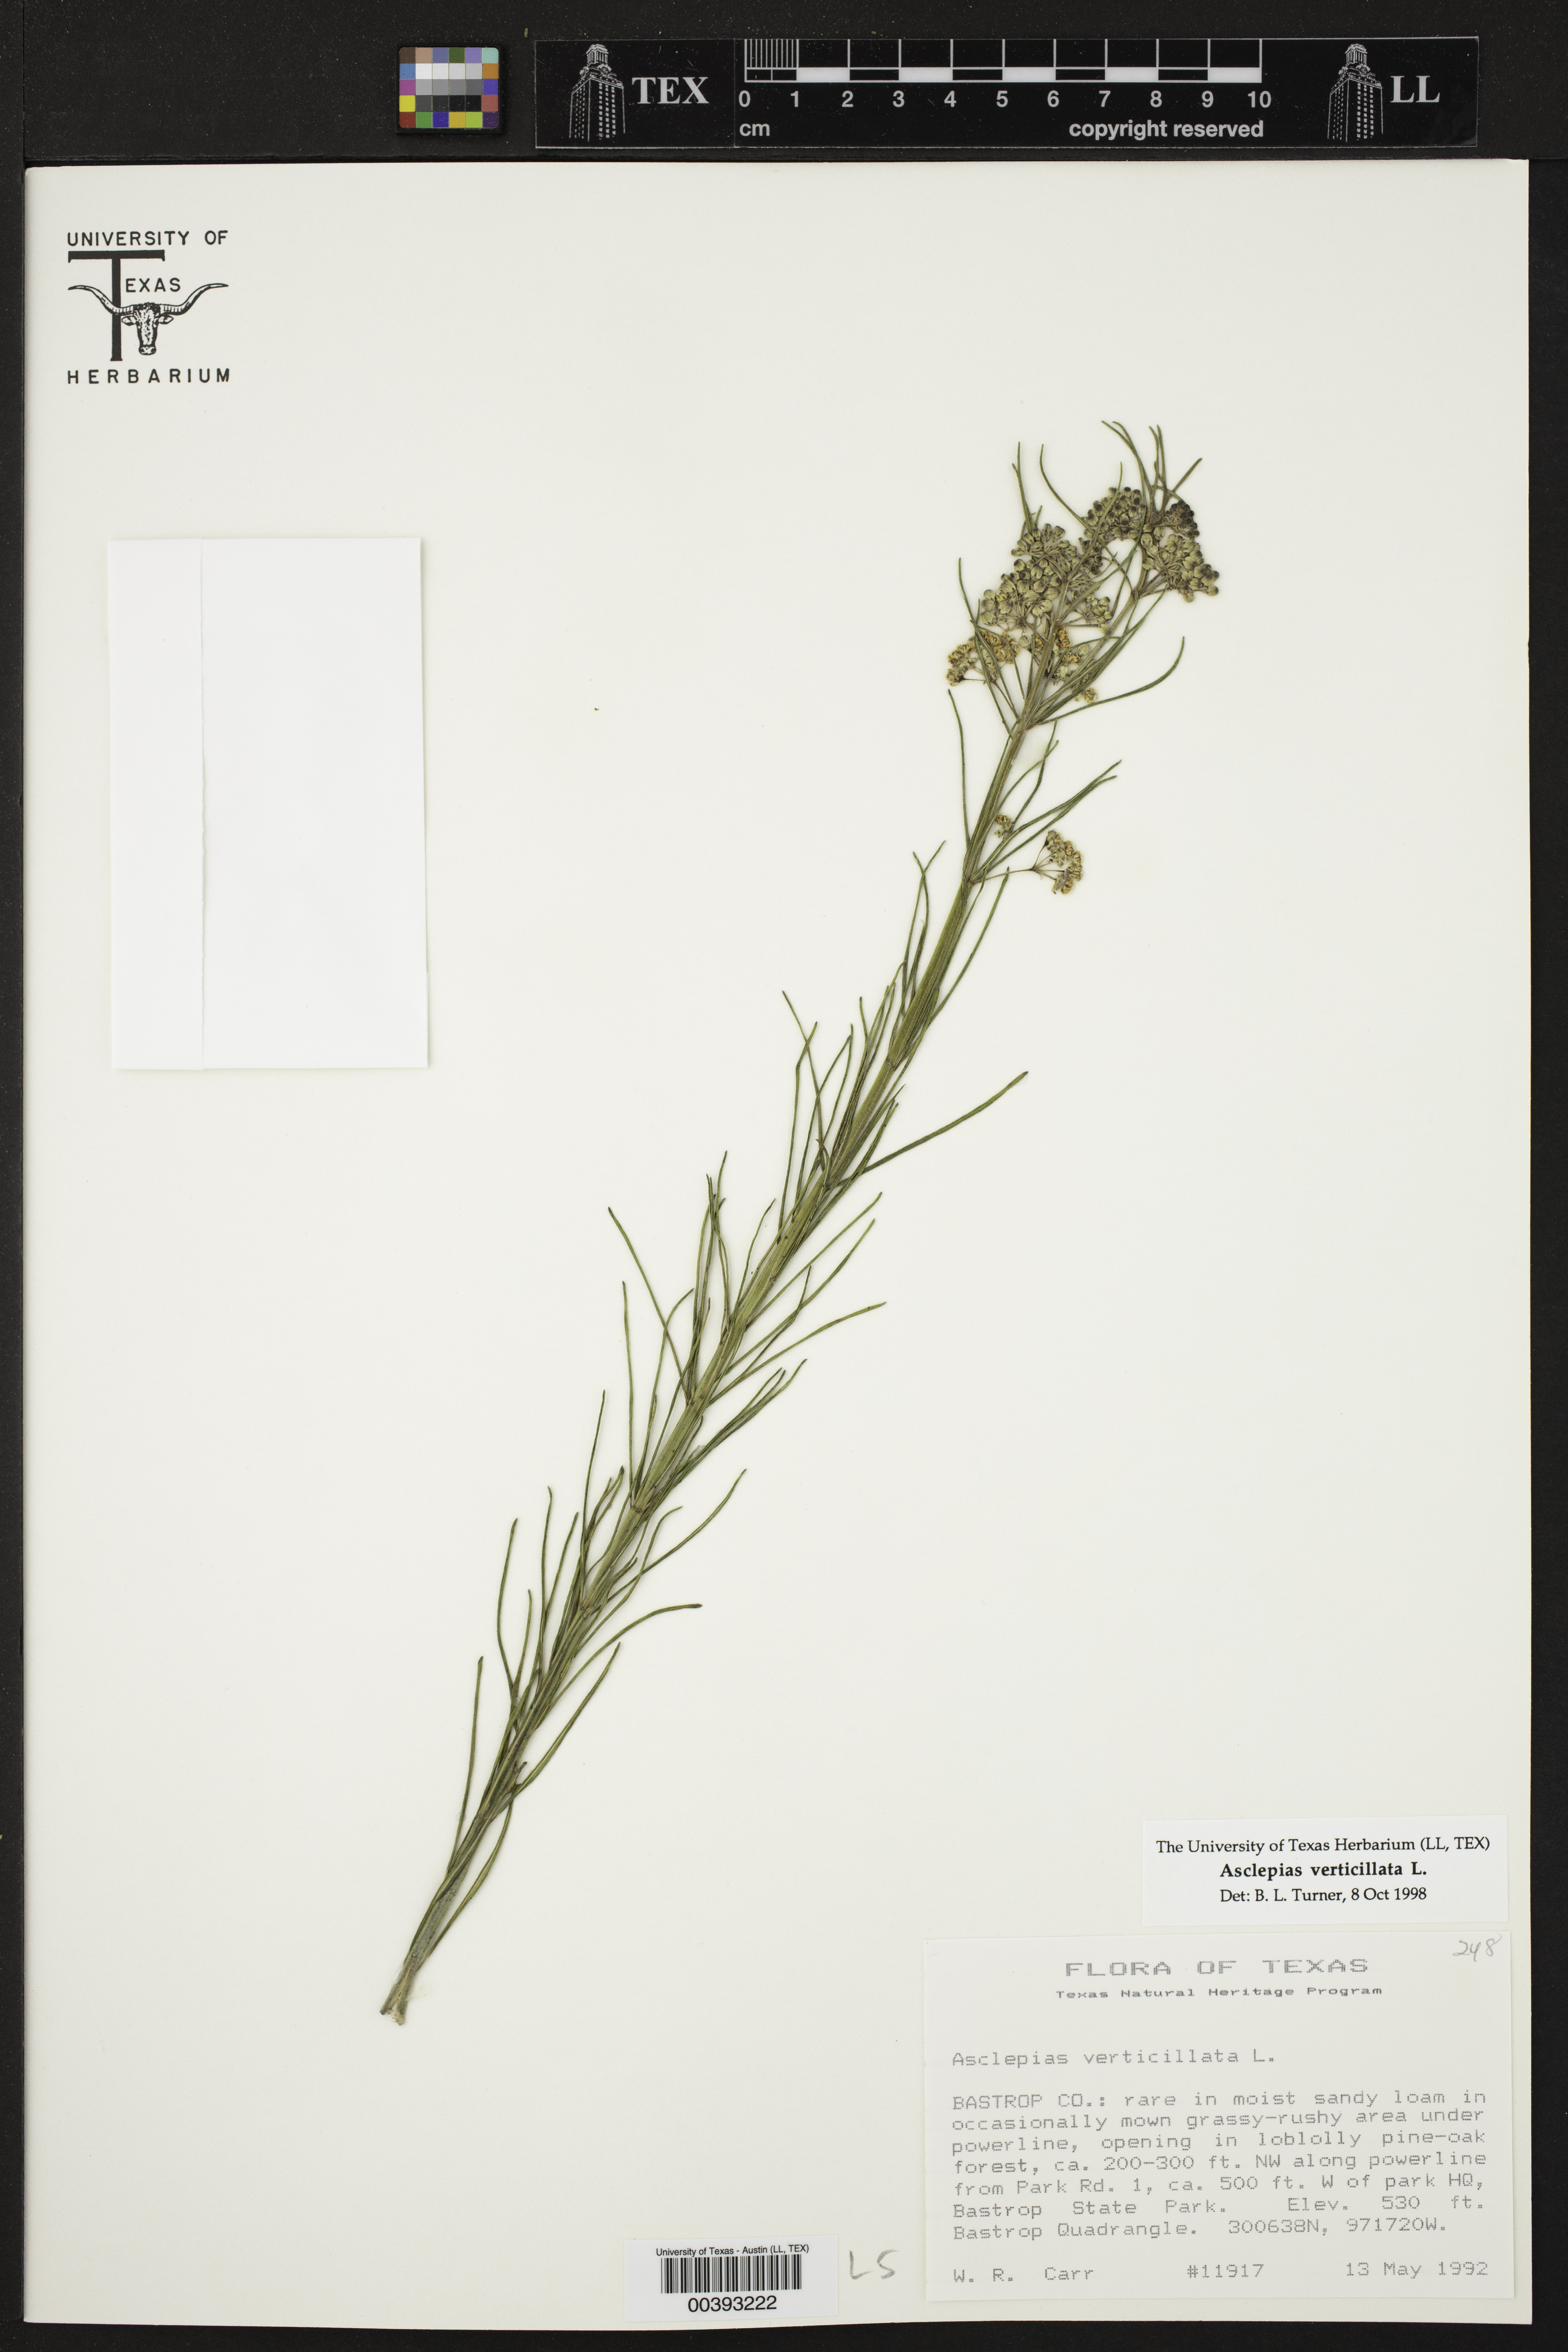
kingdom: Plantae
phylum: Tracheophyta
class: Magnoliopsida
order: Gentianales
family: Apocynaceae
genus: Asclepias
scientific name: Asclepias verticillata
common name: Eastern whorled milkweed
